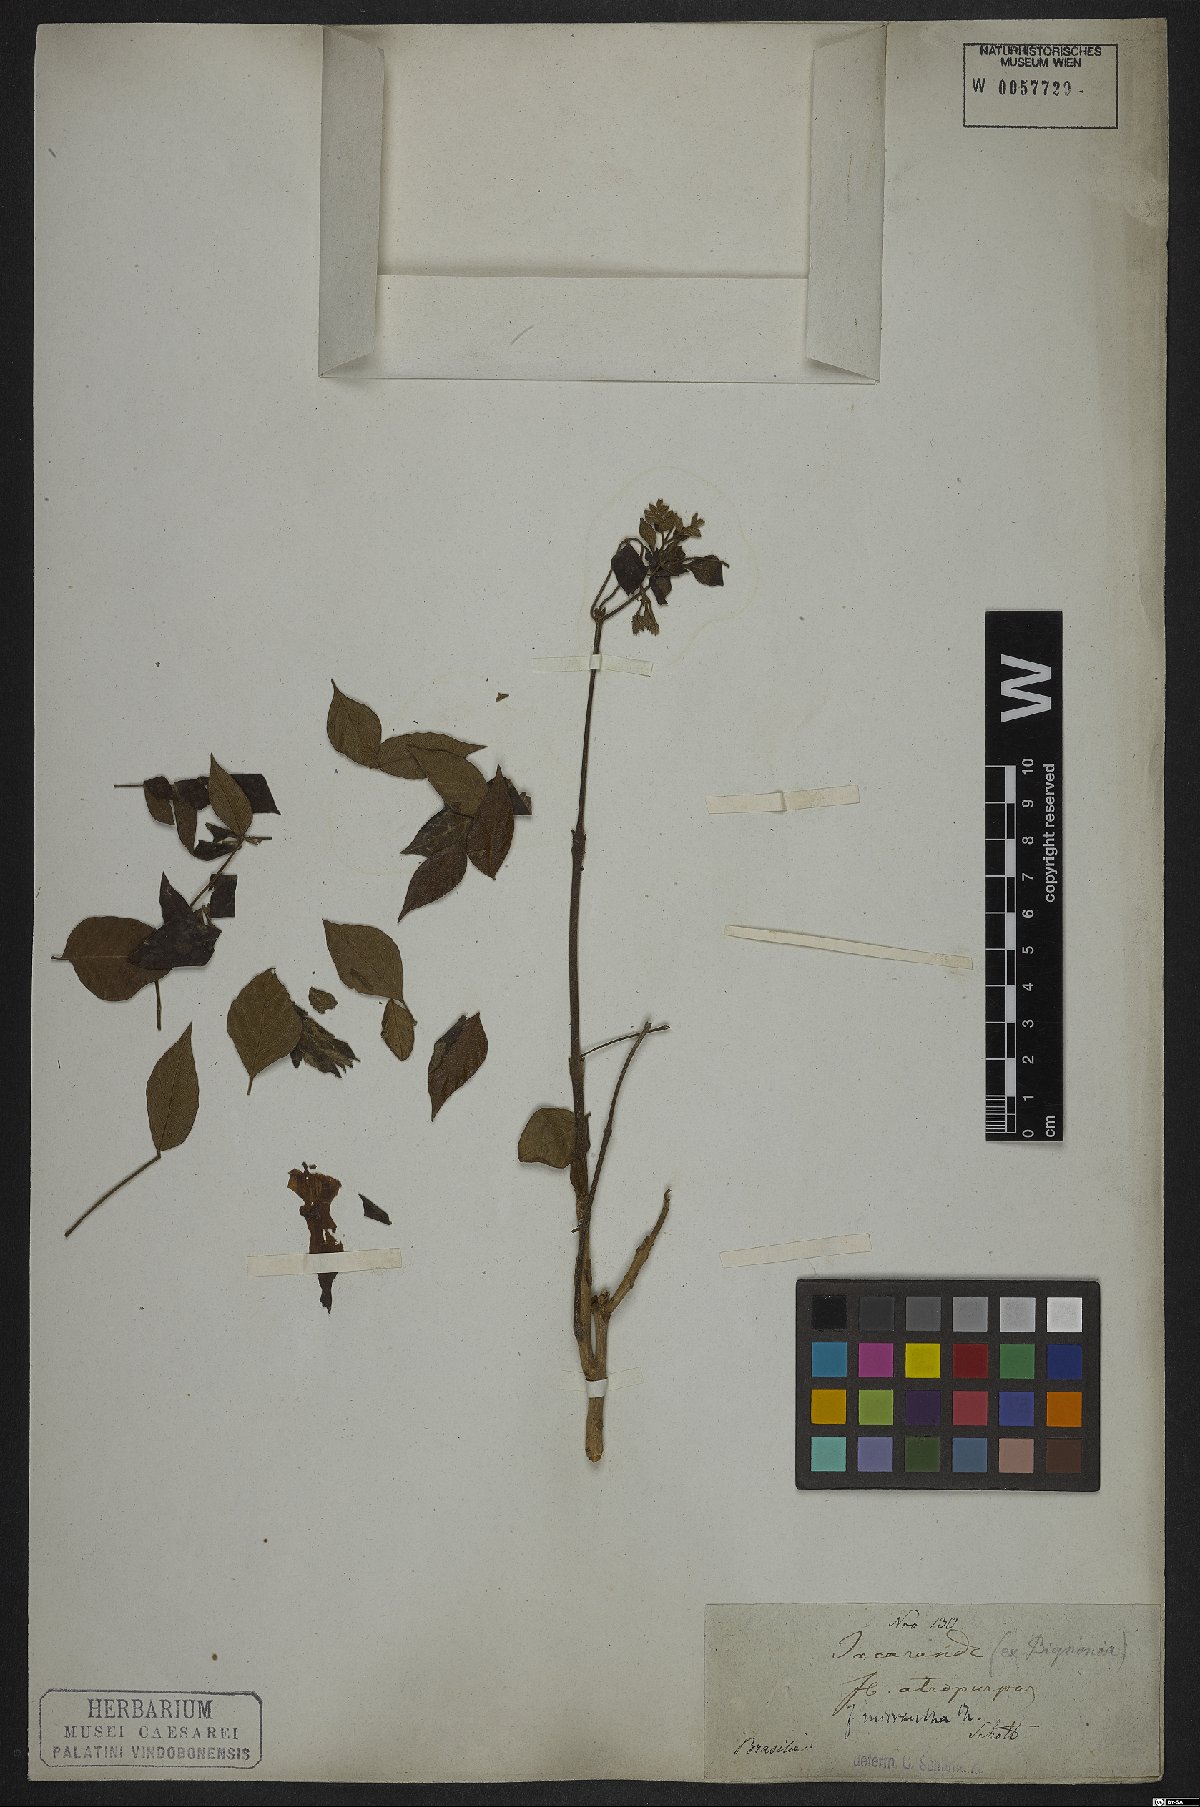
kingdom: Plantae
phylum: Tracheophyta
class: Magnoliopsida
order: Lamiales
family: Bignoniaceae
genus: Jacaranda
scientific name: Jacaranda micrantha
